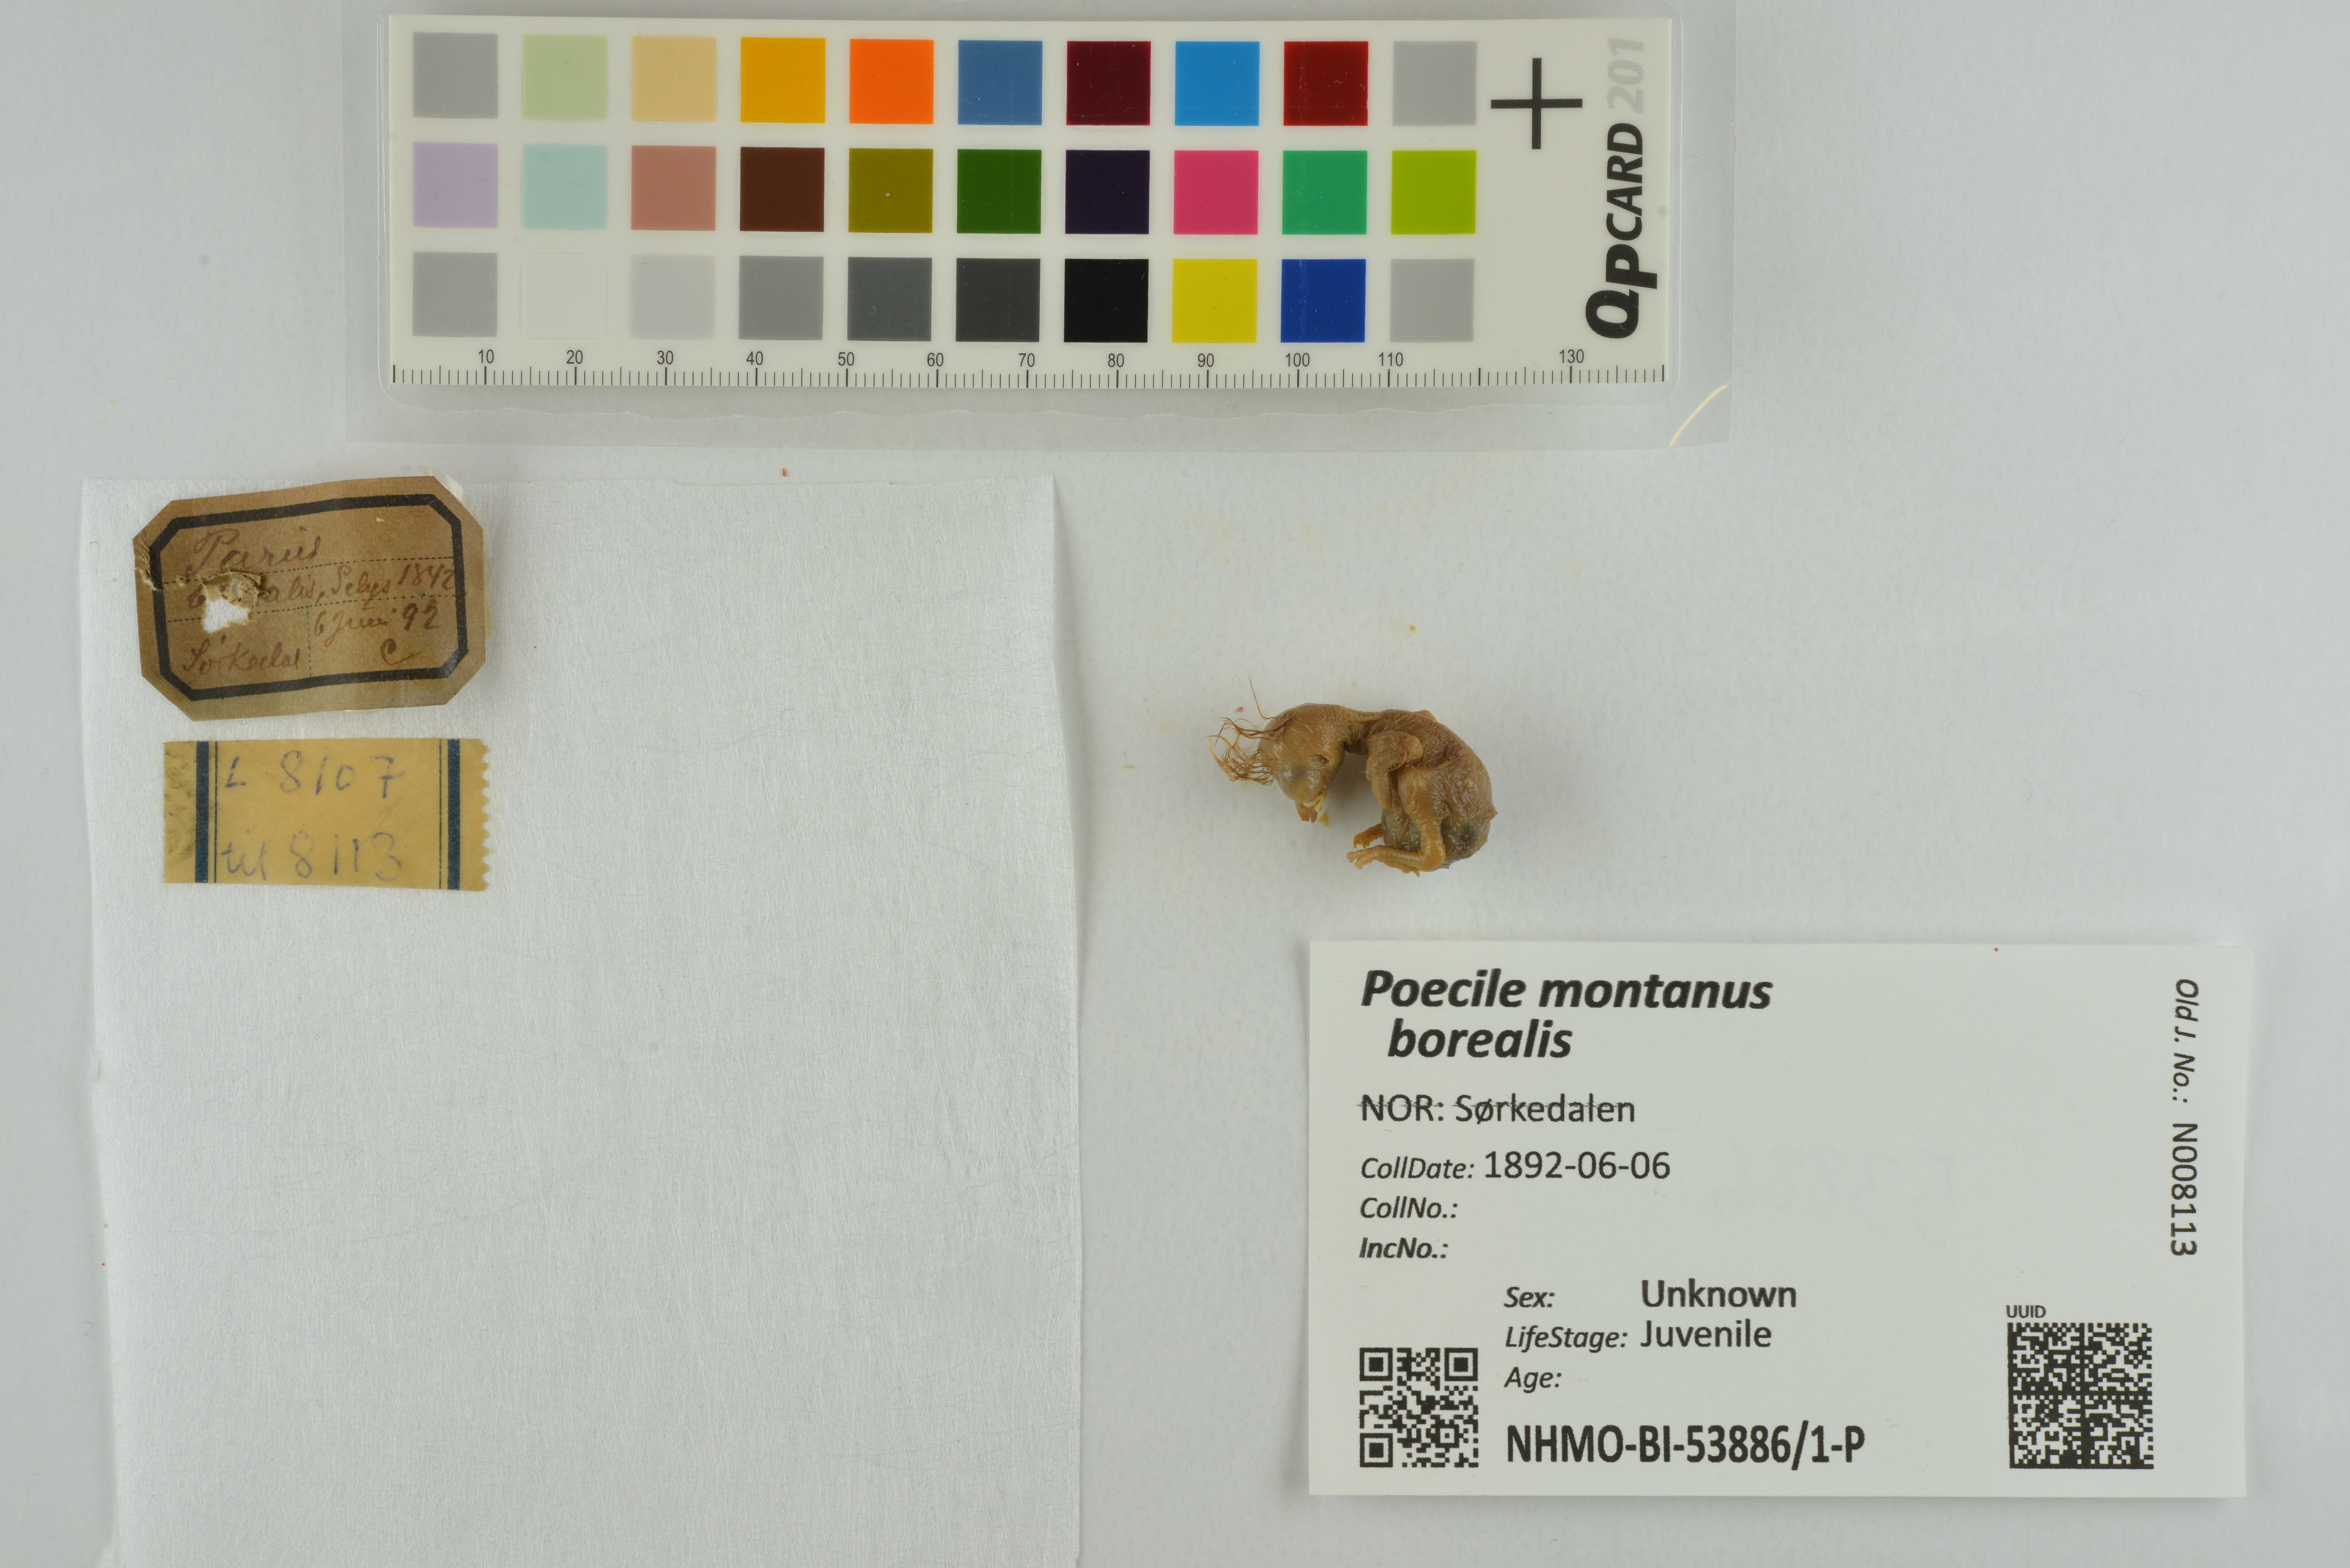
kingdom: Animalia
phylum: Chordata
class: Aves
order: Passeriformes
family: Paridae
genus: Poecile
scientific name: Poecile montanus
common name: Willow tit
